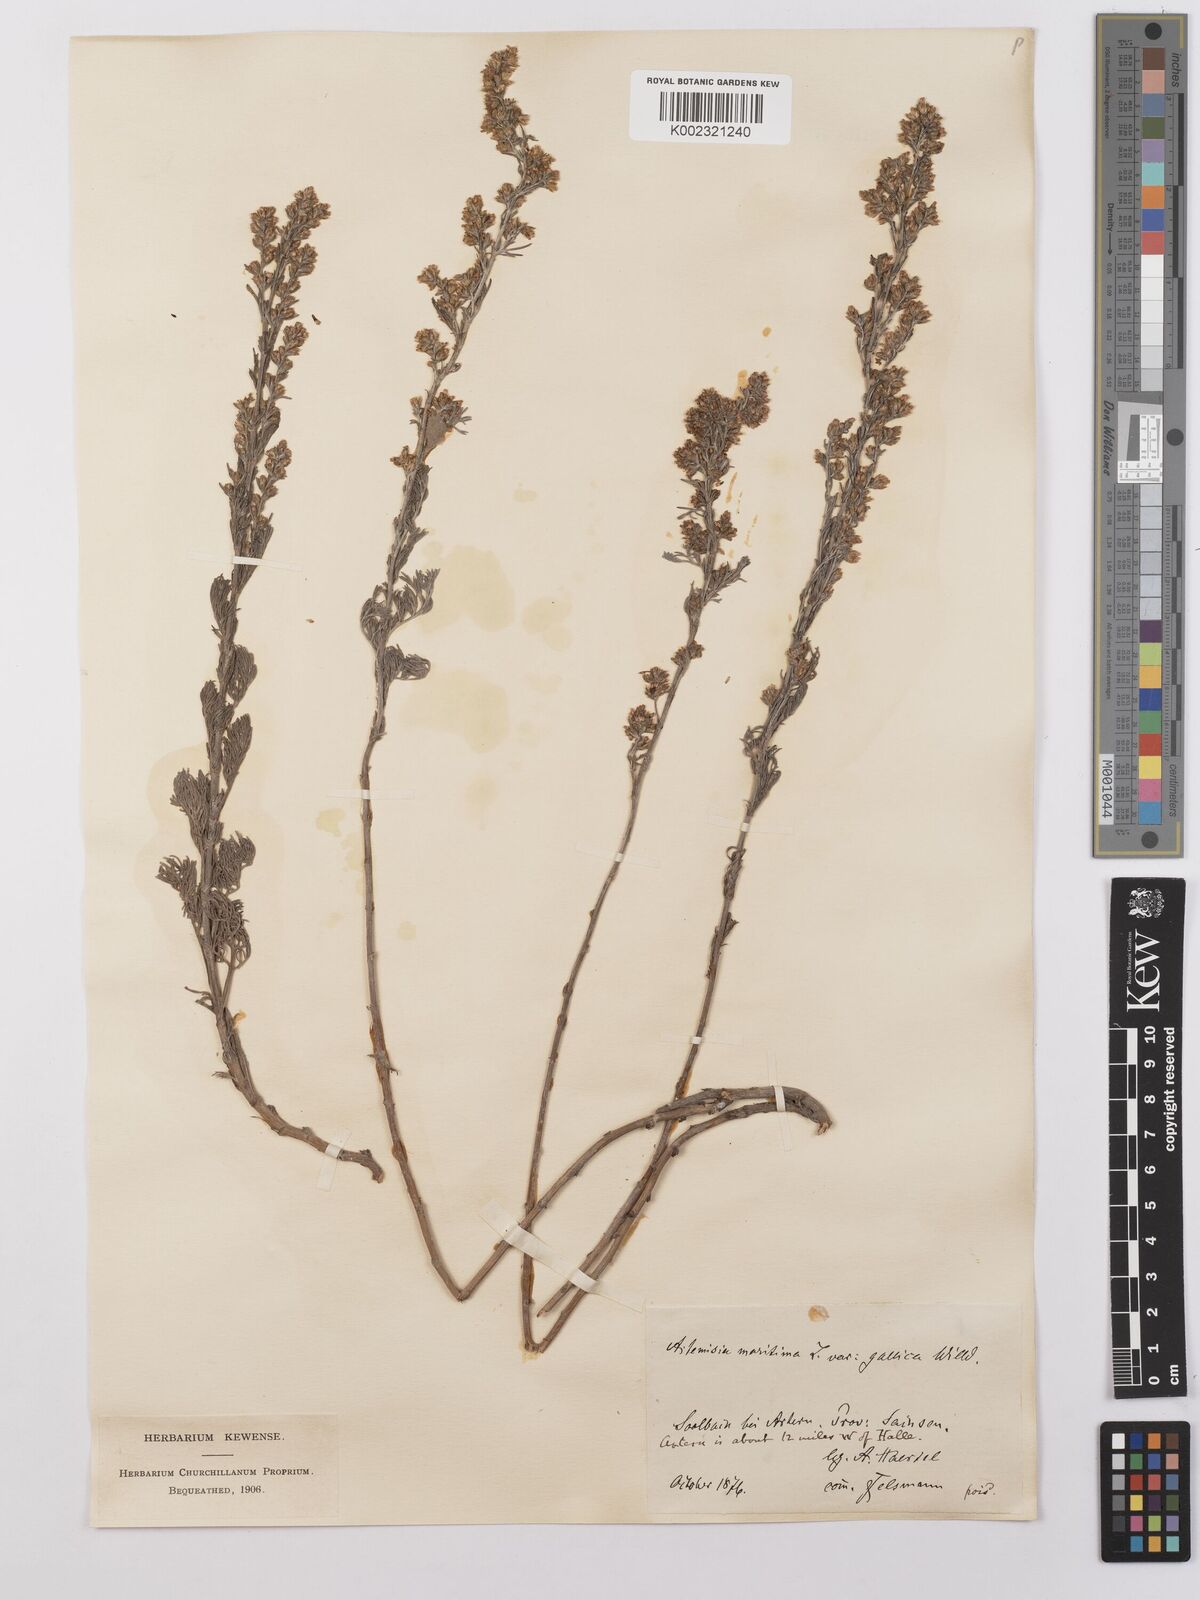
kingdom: Plantae
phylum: Tracheophyta
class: Magnoliopsida
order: Asterales
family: Asteraceae
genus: Artemisia
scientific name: Artemisia maritima
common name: Wormseed
